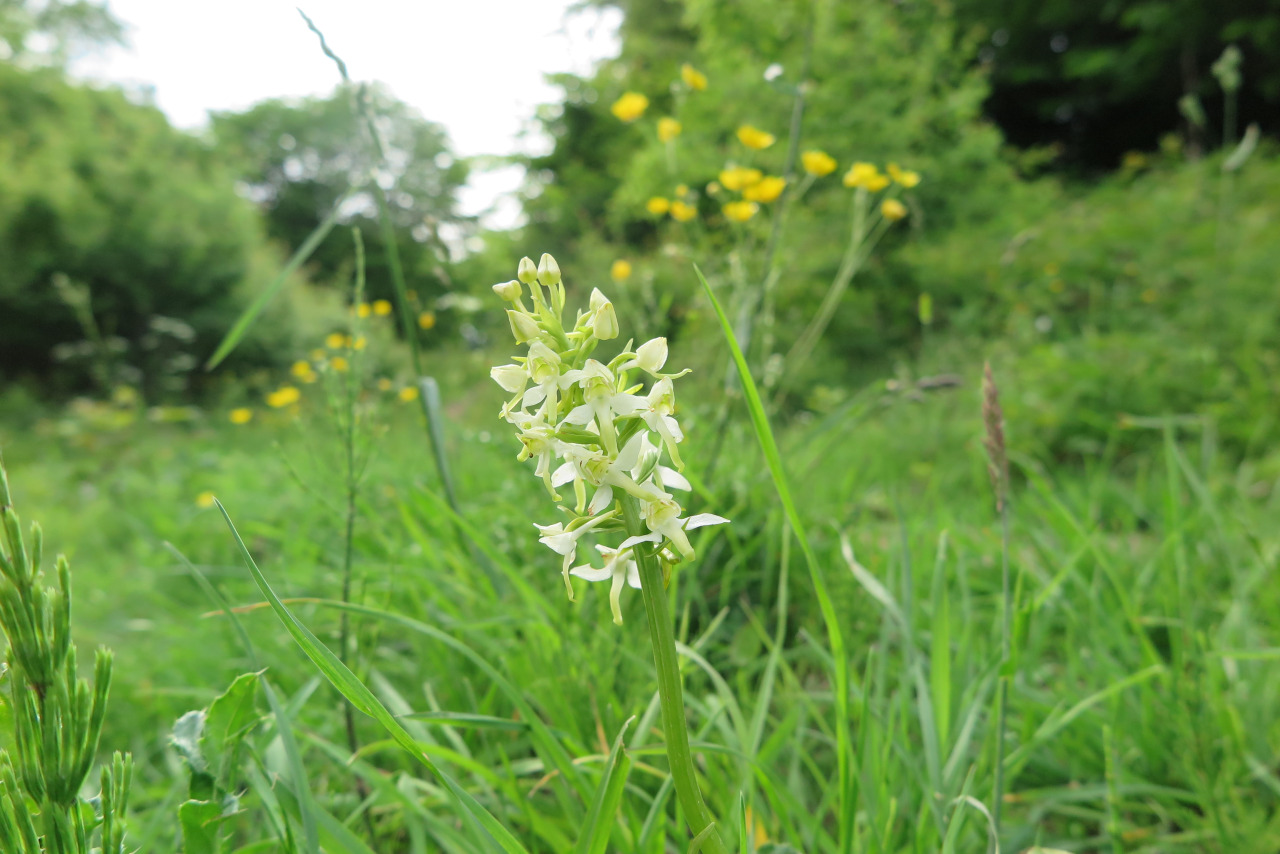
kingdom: Plantae
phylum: Tracheophyta
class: Liliopsida
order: Asparagales
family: Orchidaceae
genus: Platanthera
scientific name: Platanthera chlorantha
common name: Skov-gøgelilje
